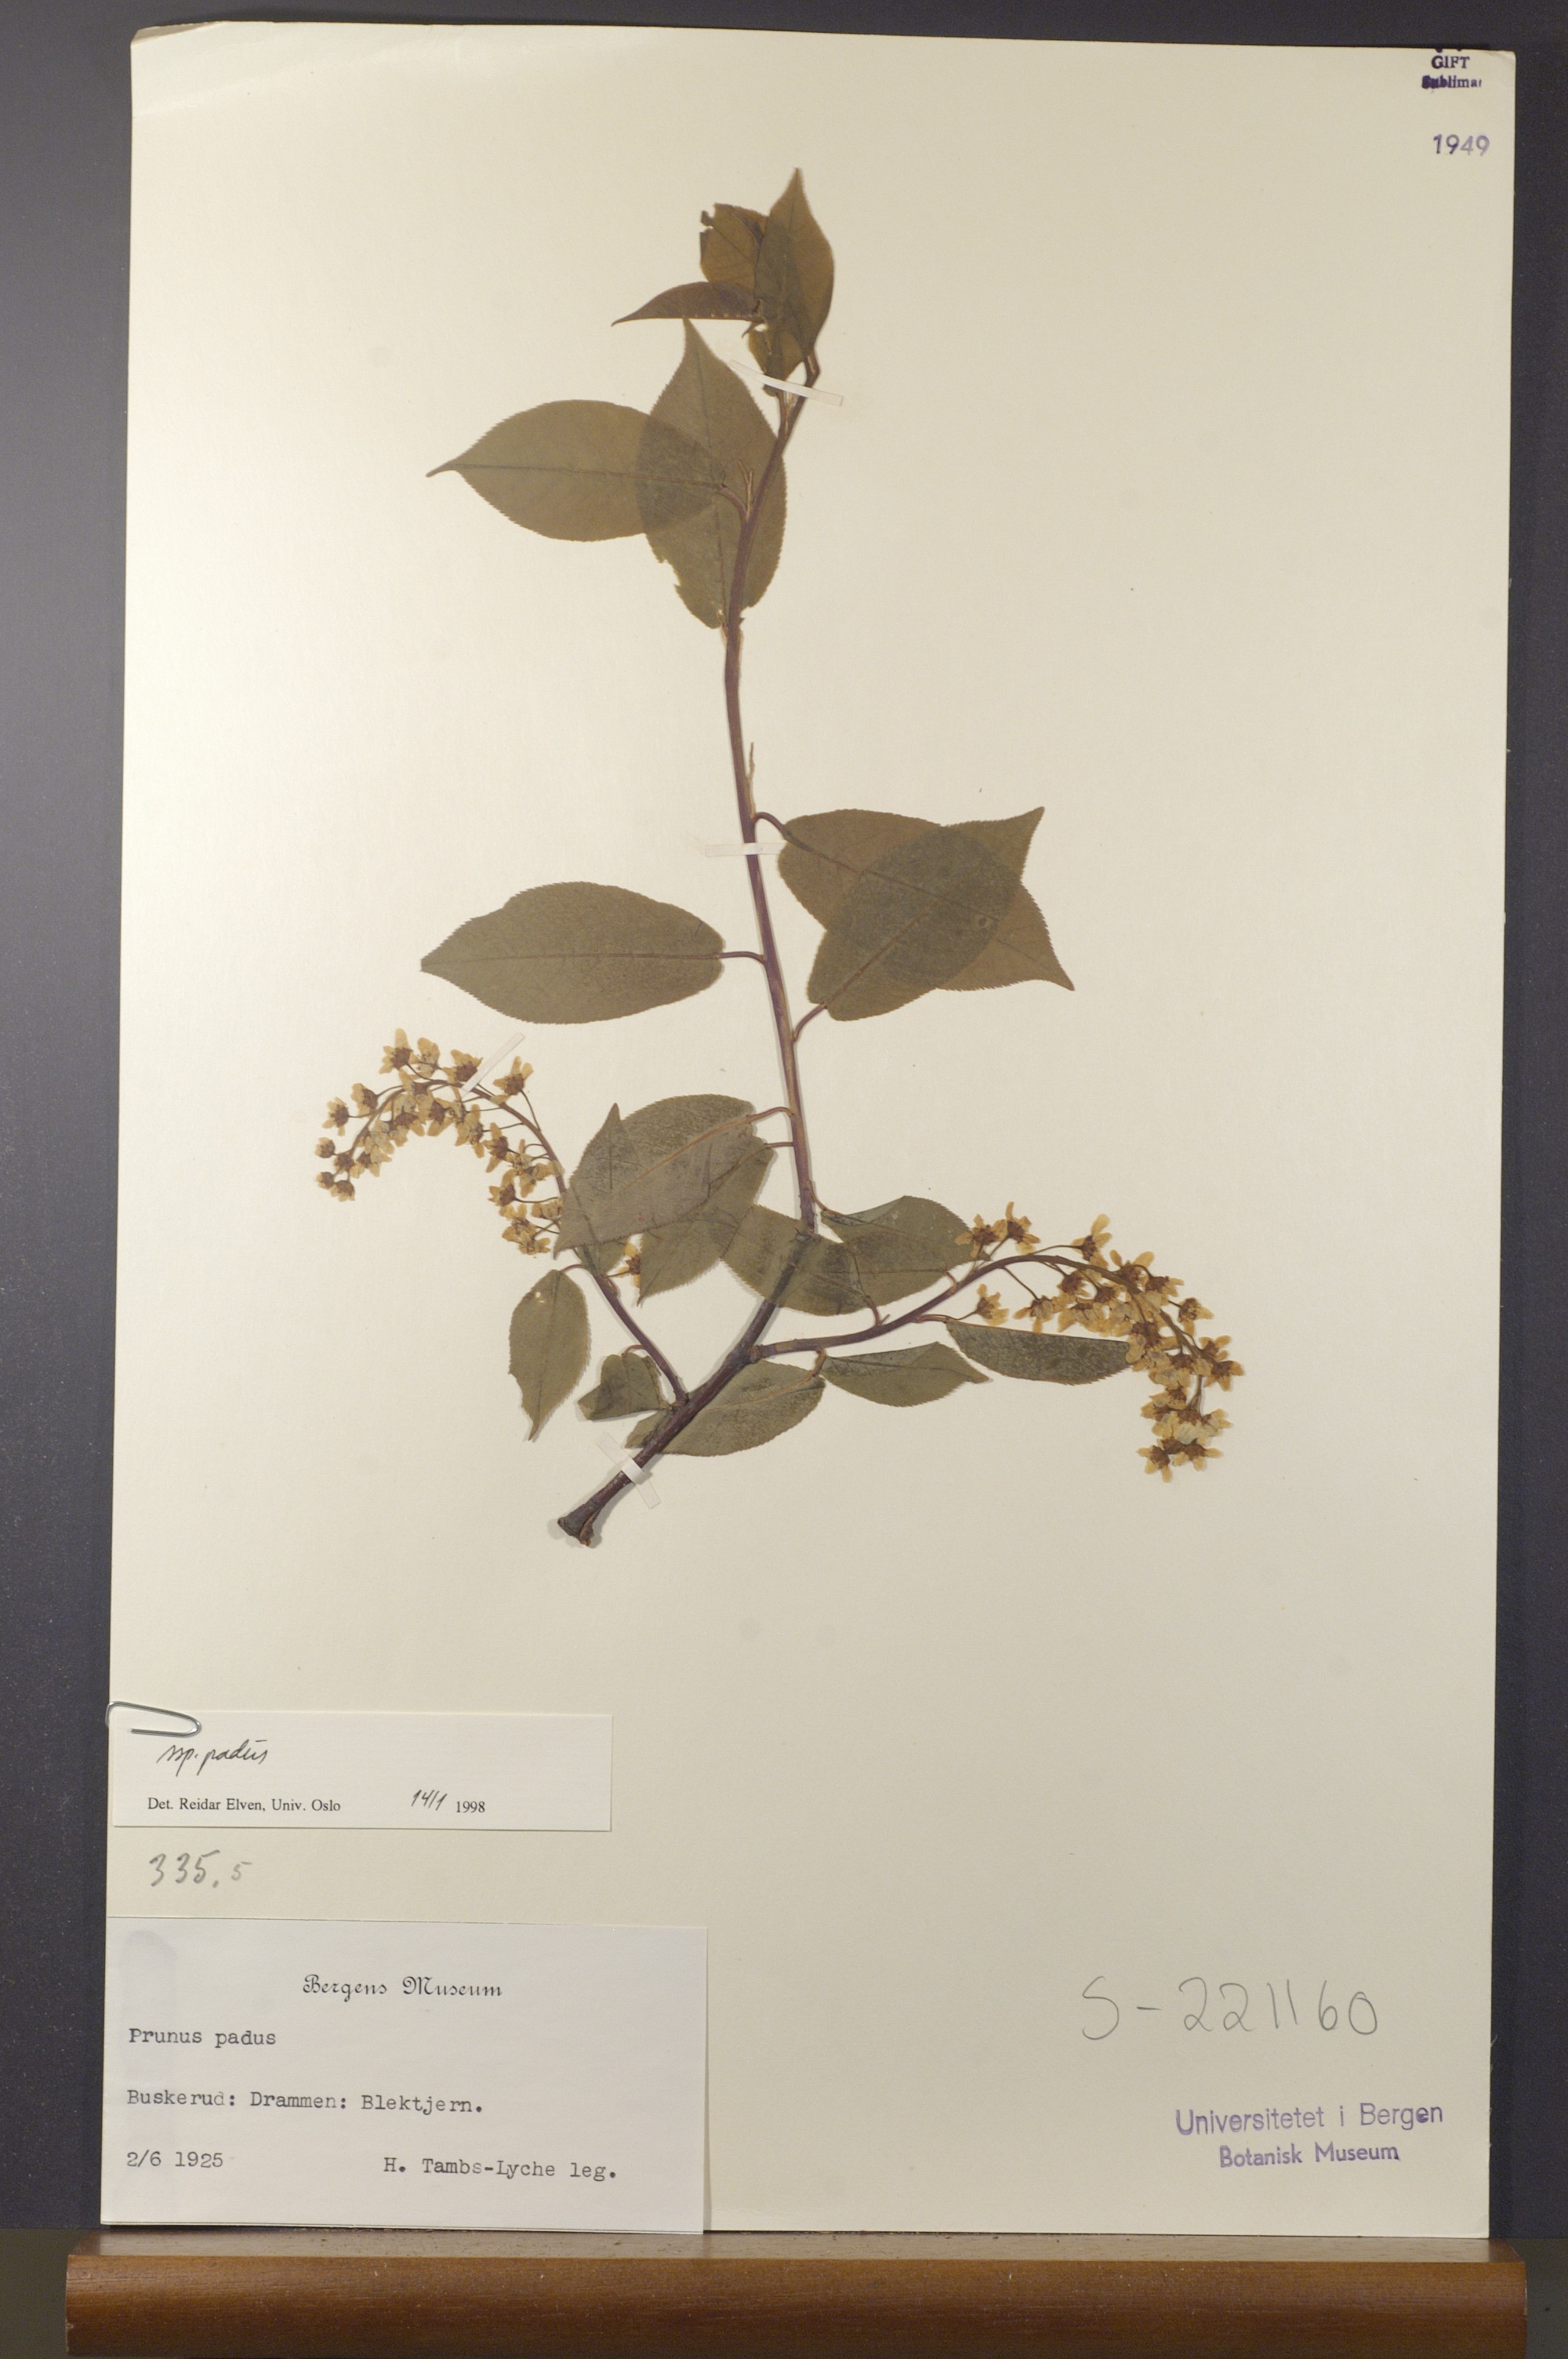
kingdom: Plantae
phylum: Tracheophyta
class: Magnoliopsida
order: Rosales
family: Rosaceae
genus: Prunus
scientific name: Prunus padus
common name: Bird cherry
